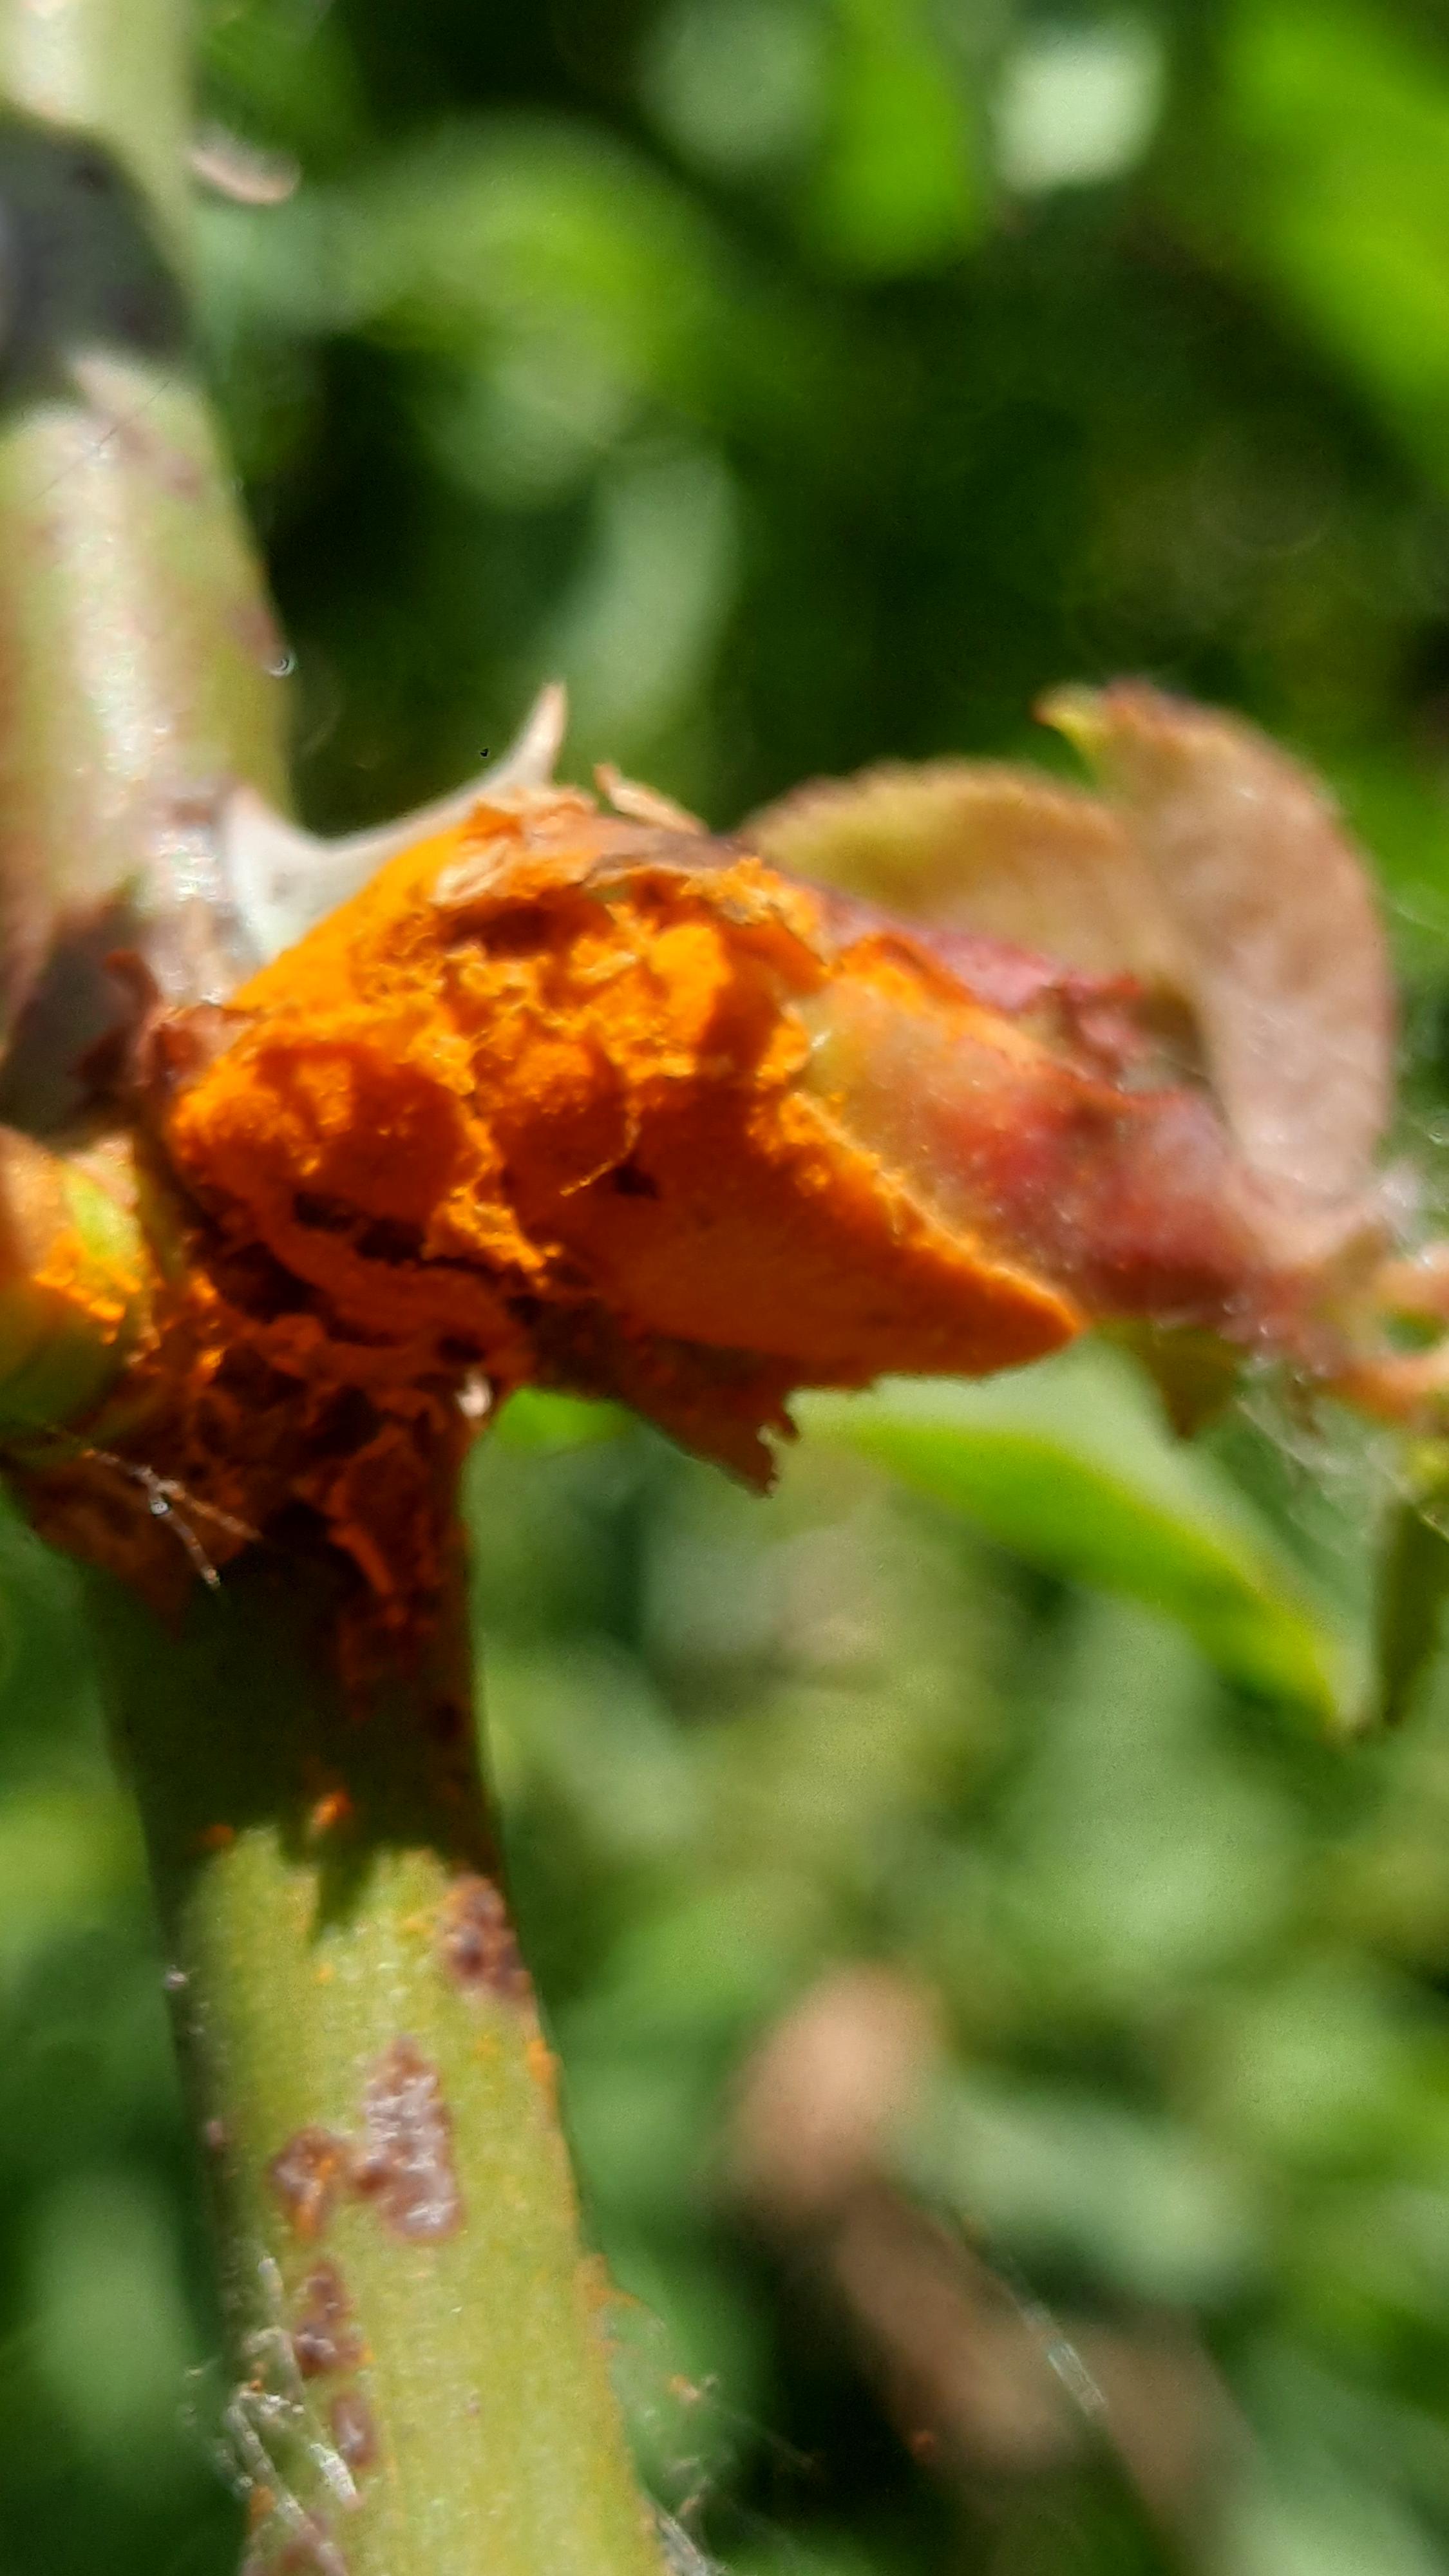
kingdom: Fungi
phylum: Basidiomycota
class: Pucciniomycetes
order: Pucciniales
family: Phragmidiaceae
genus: Phragmidium
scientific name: Phragmidium
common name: flercellerust
